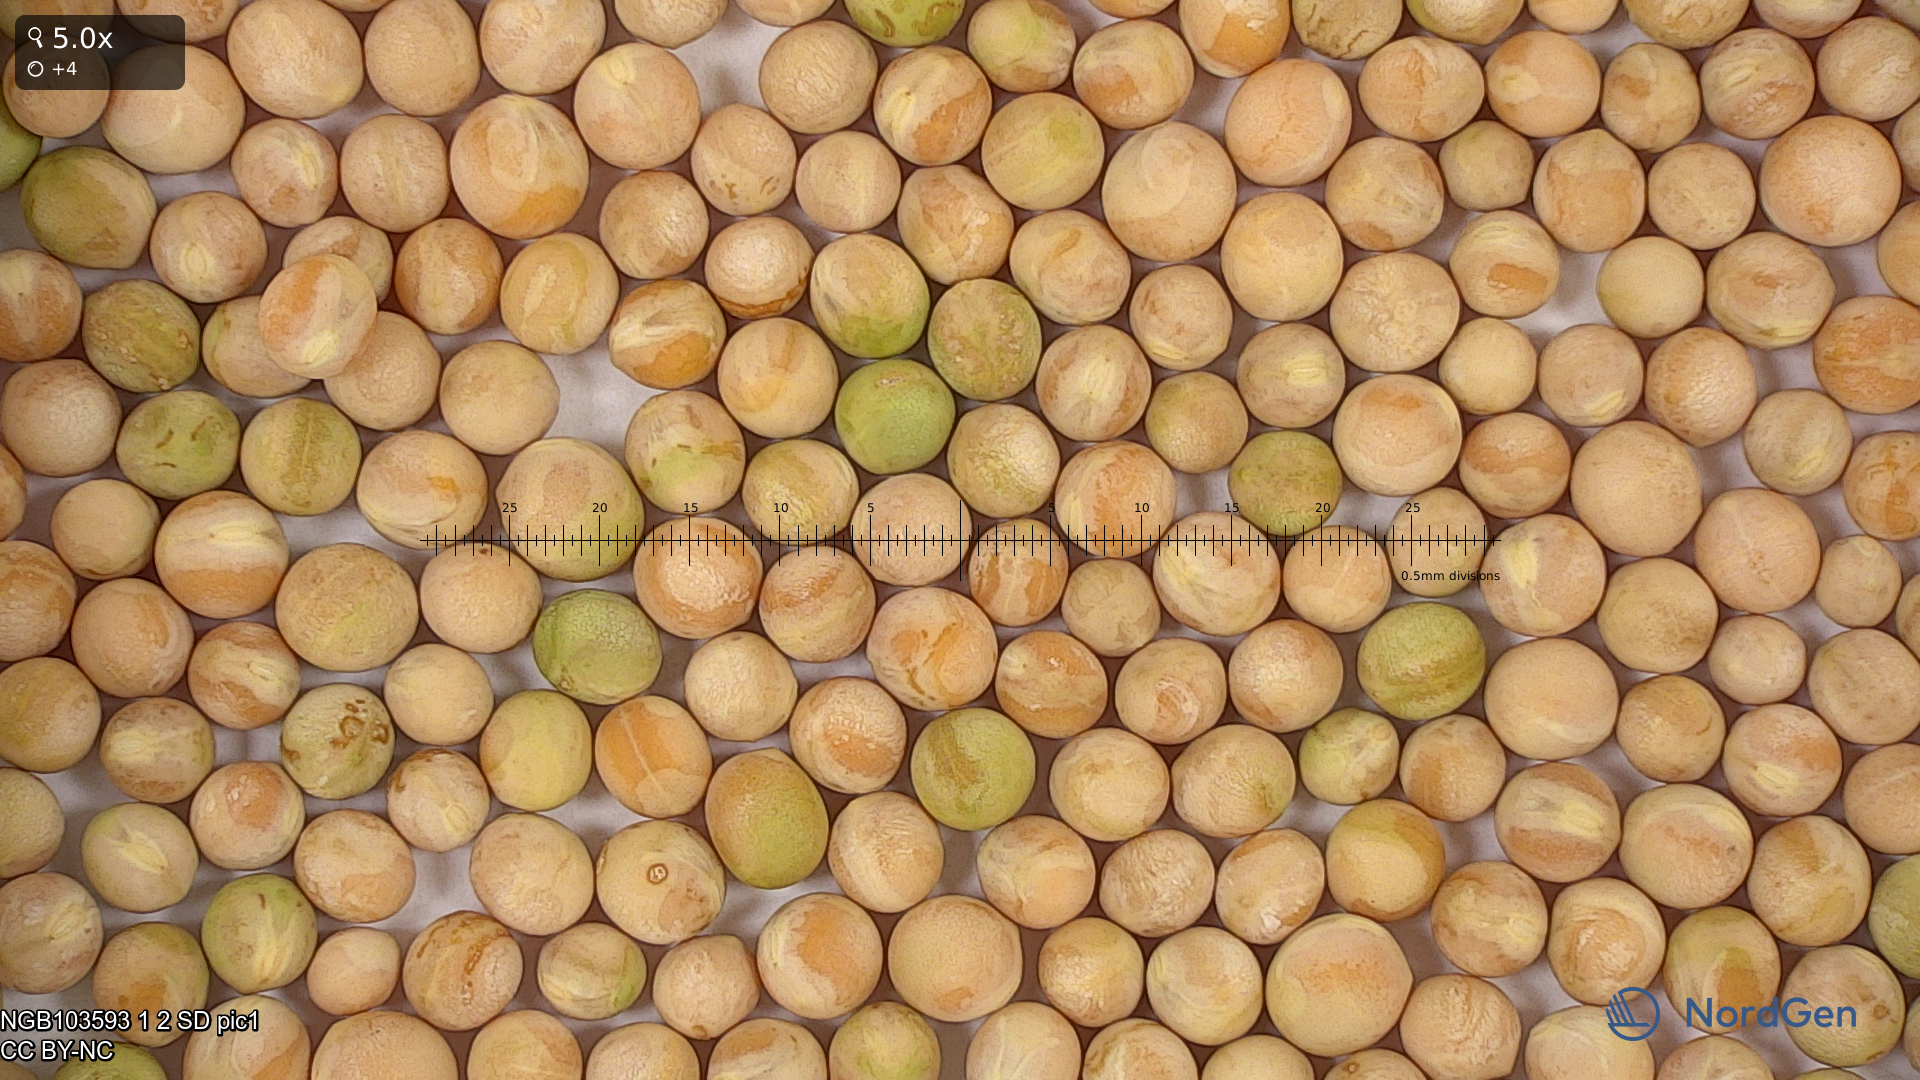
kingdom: Plantae
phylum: Tracheophyta
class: Magnoliopsida
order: Fabales
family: Fabaceae
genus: Lathyrus
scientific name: Lathyrus oleraceus
